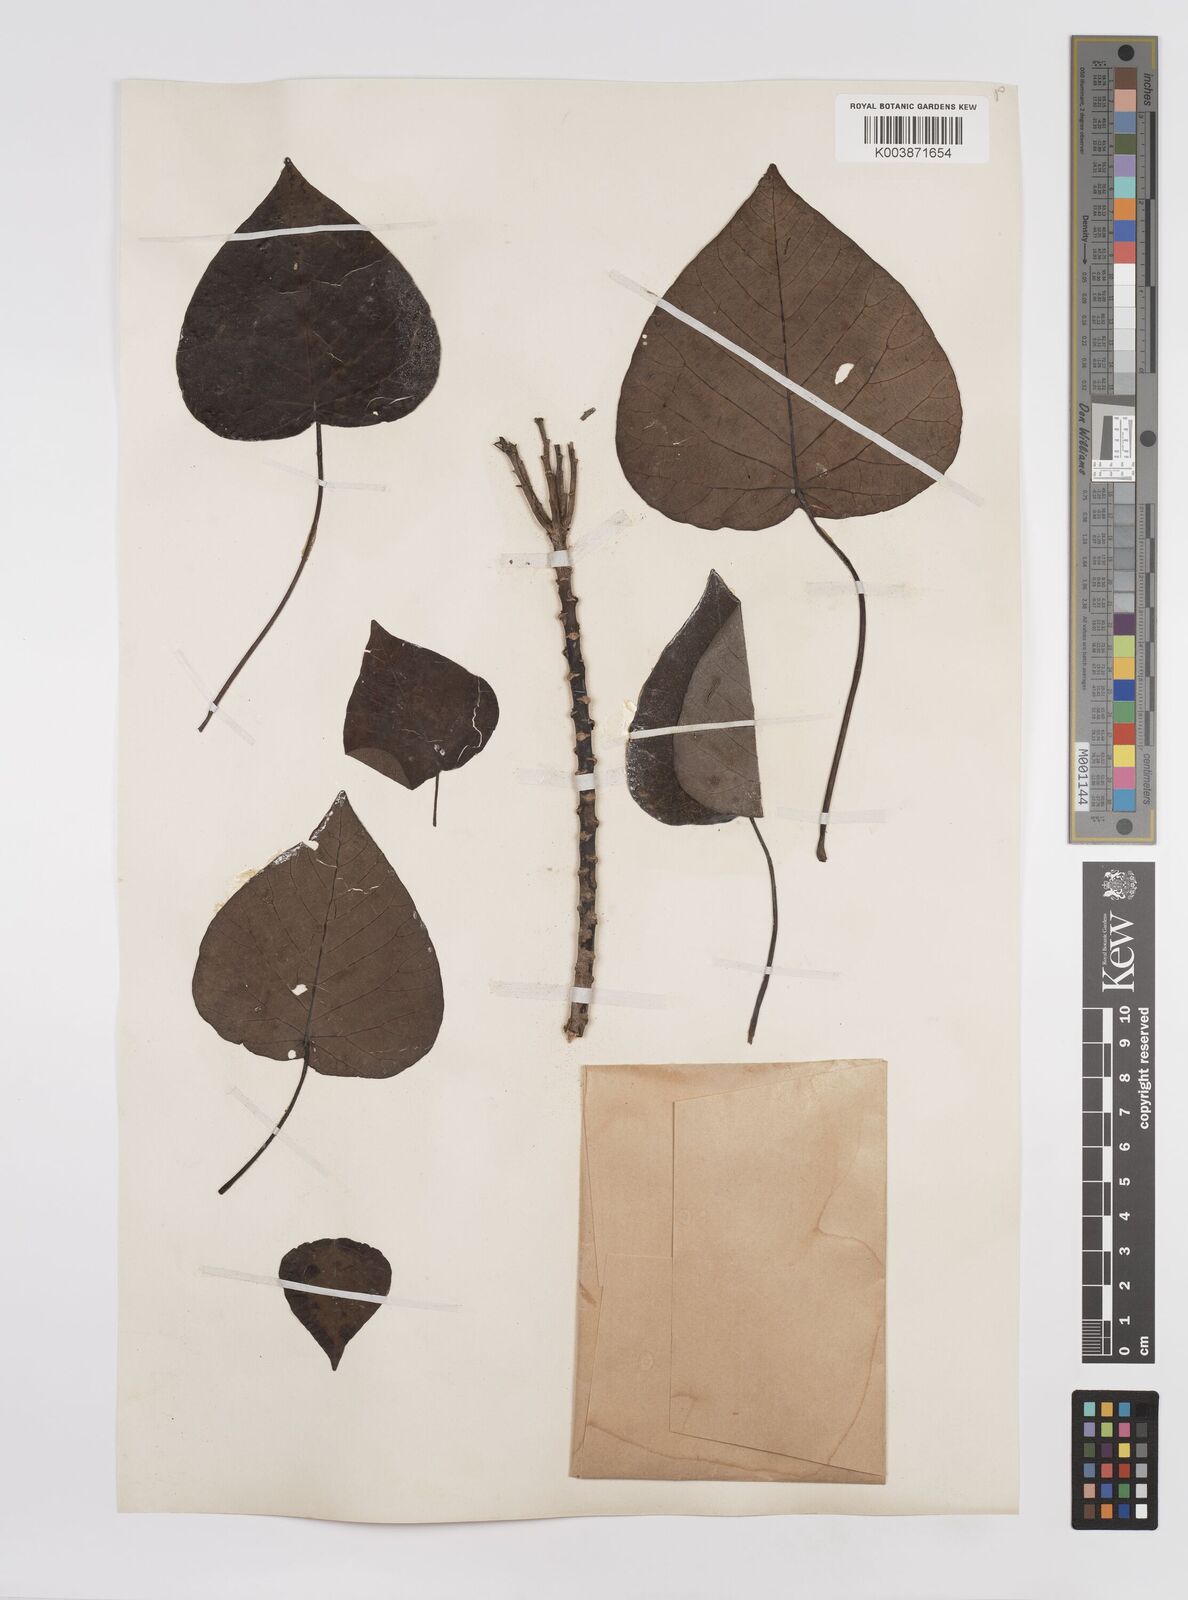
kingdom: Plantae
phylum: Tracheophyta
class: Magnoliopsida
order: Malpighiales
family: Euphorbiaceae
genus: Homalanthus
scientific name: Homalanthus fastuosus
